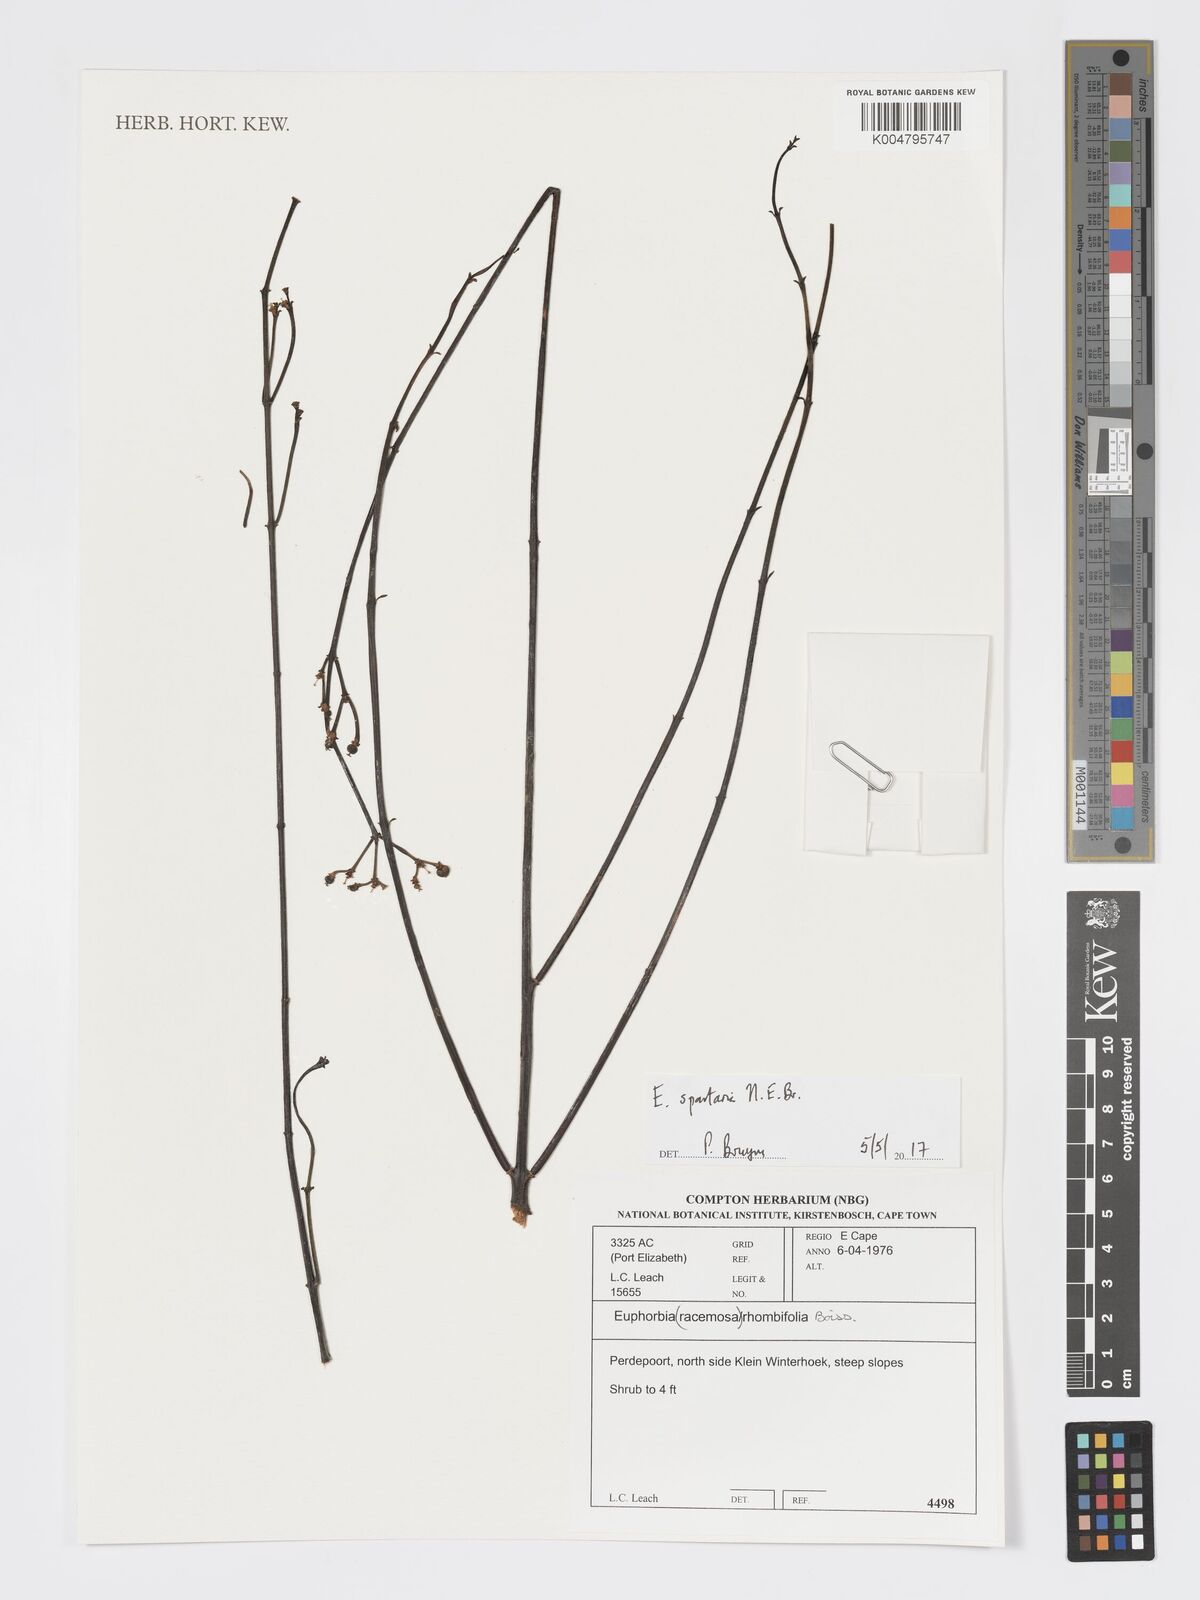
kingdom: Plantae
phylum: Tracheophyta
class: Magnoliopsida
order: Malpighiales
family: Euphorbiaceae
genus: Euphorbia
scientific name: Euphorbia spartaria
